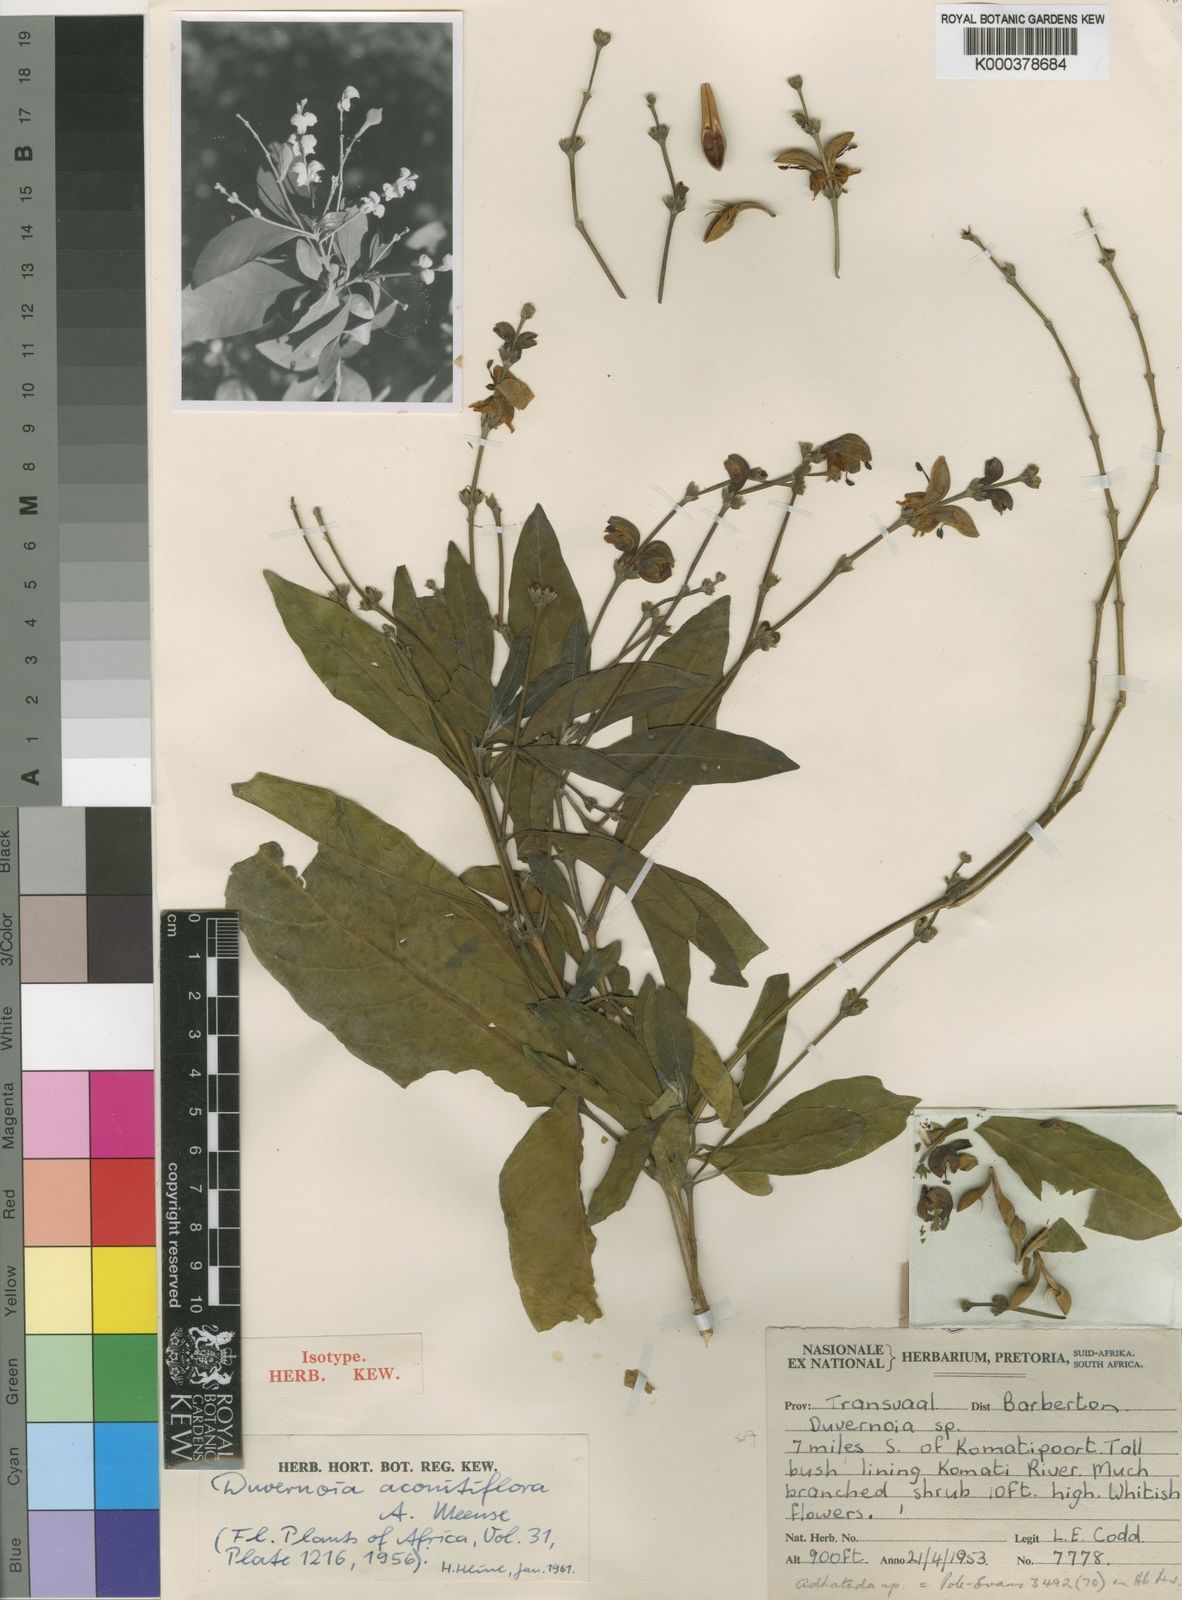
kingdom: Plantae
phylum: Tracheophyta
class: Magnoliopsida
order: Lamiales
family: Acanthaceae
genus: Justicia
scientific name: Justicia aconitiflora
